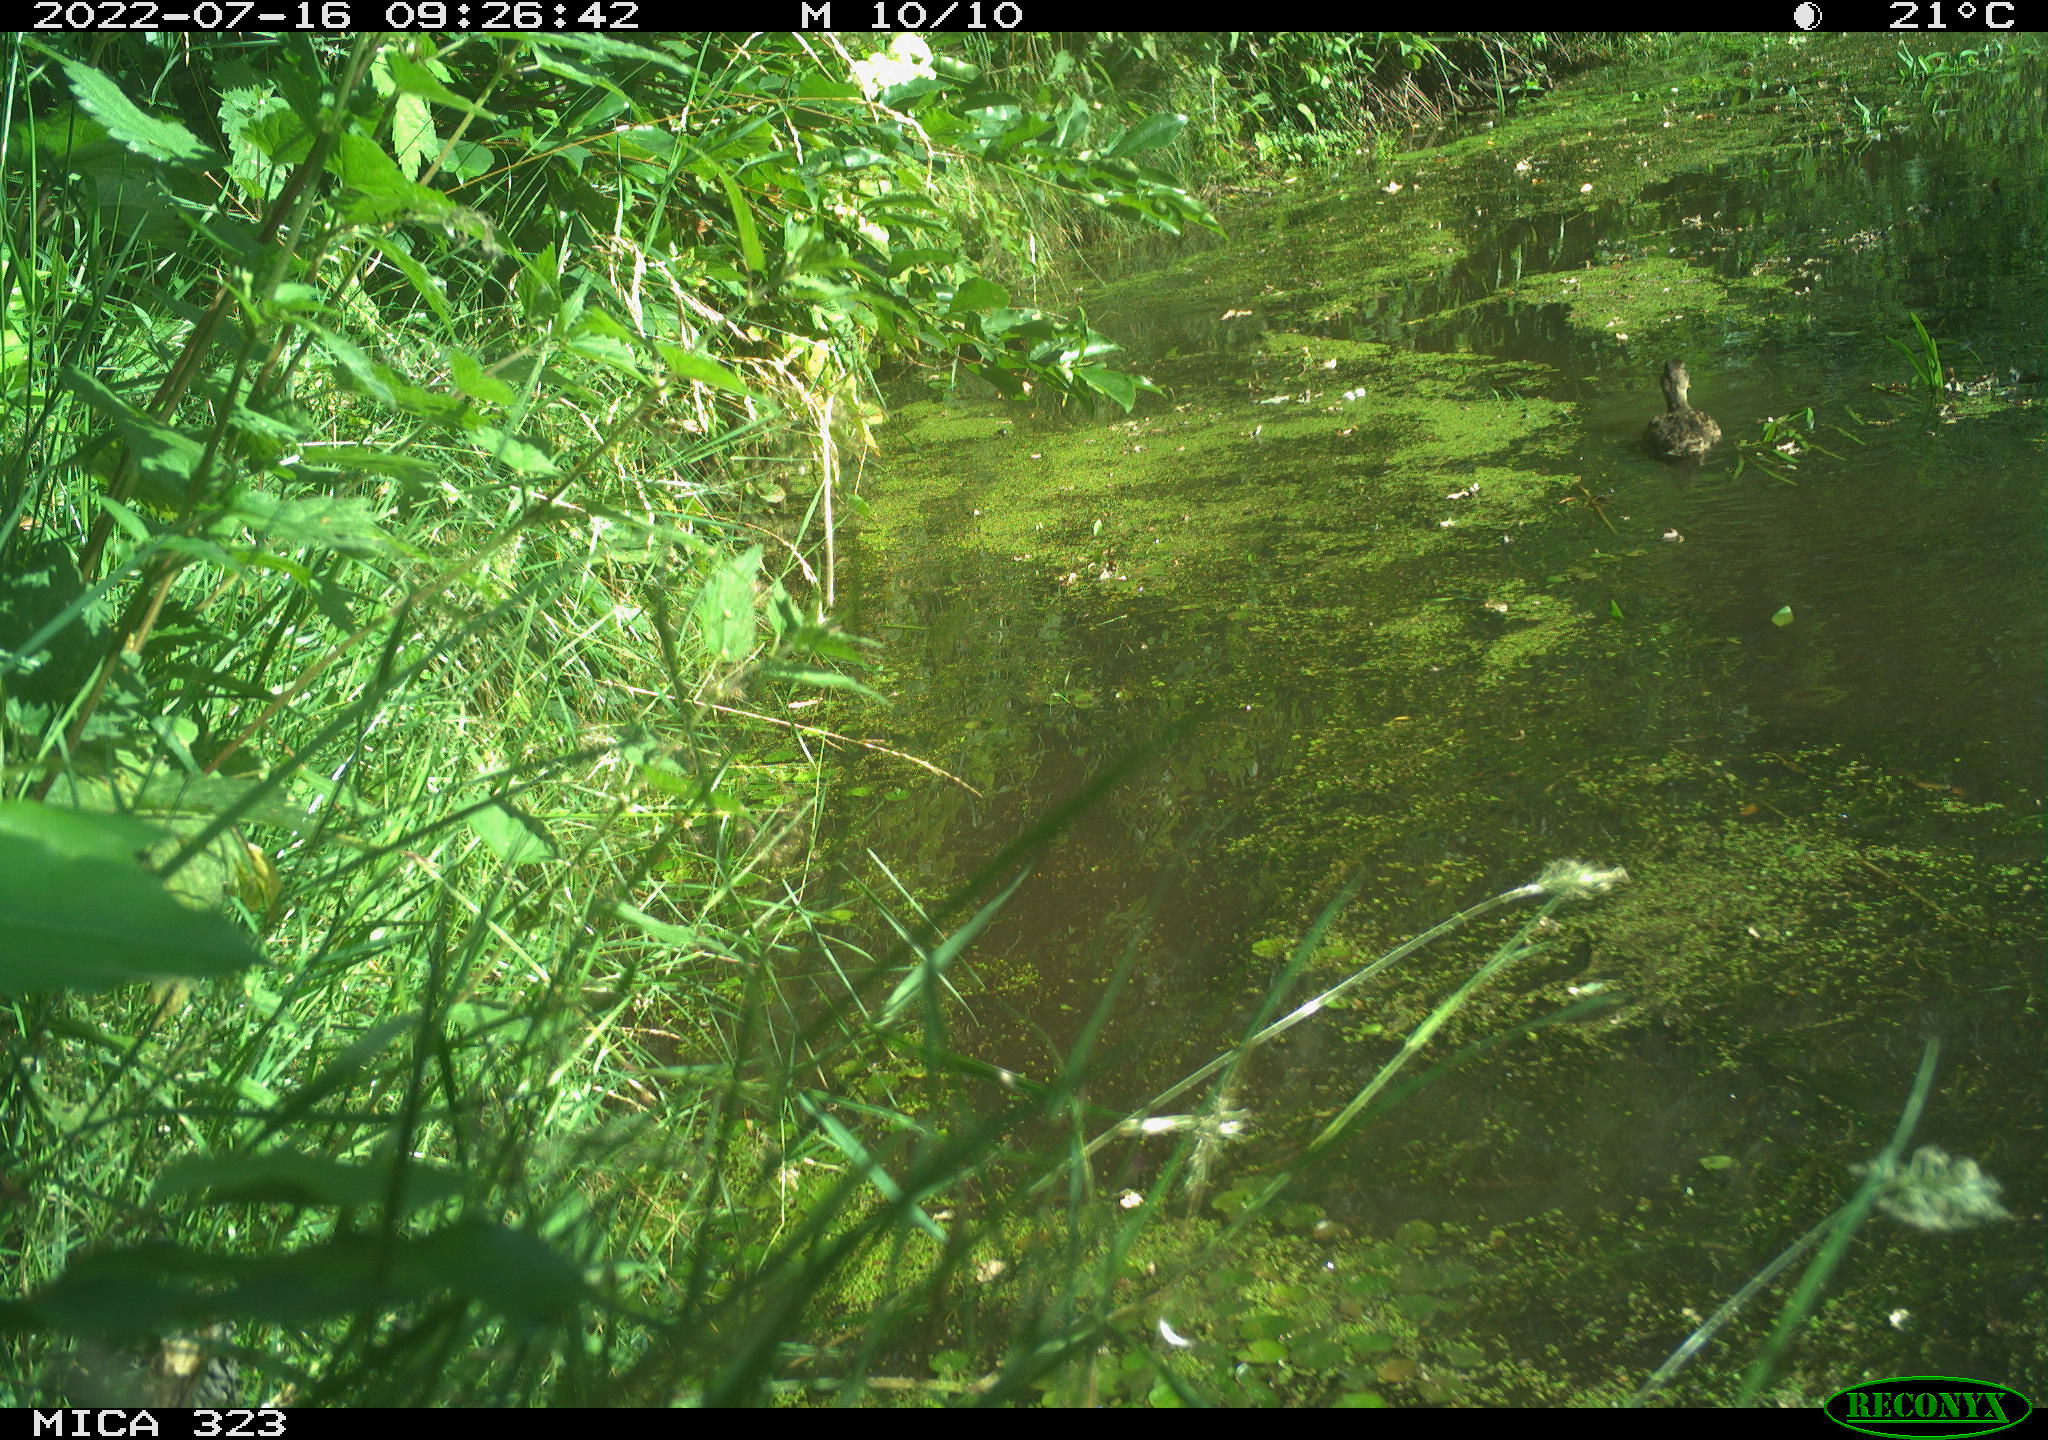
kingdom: Animalia
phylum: Chordata
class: Aves
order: Anseriformes
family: Anatidae
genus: Anas
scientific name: Anas platyrhynchos
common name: Mallard
